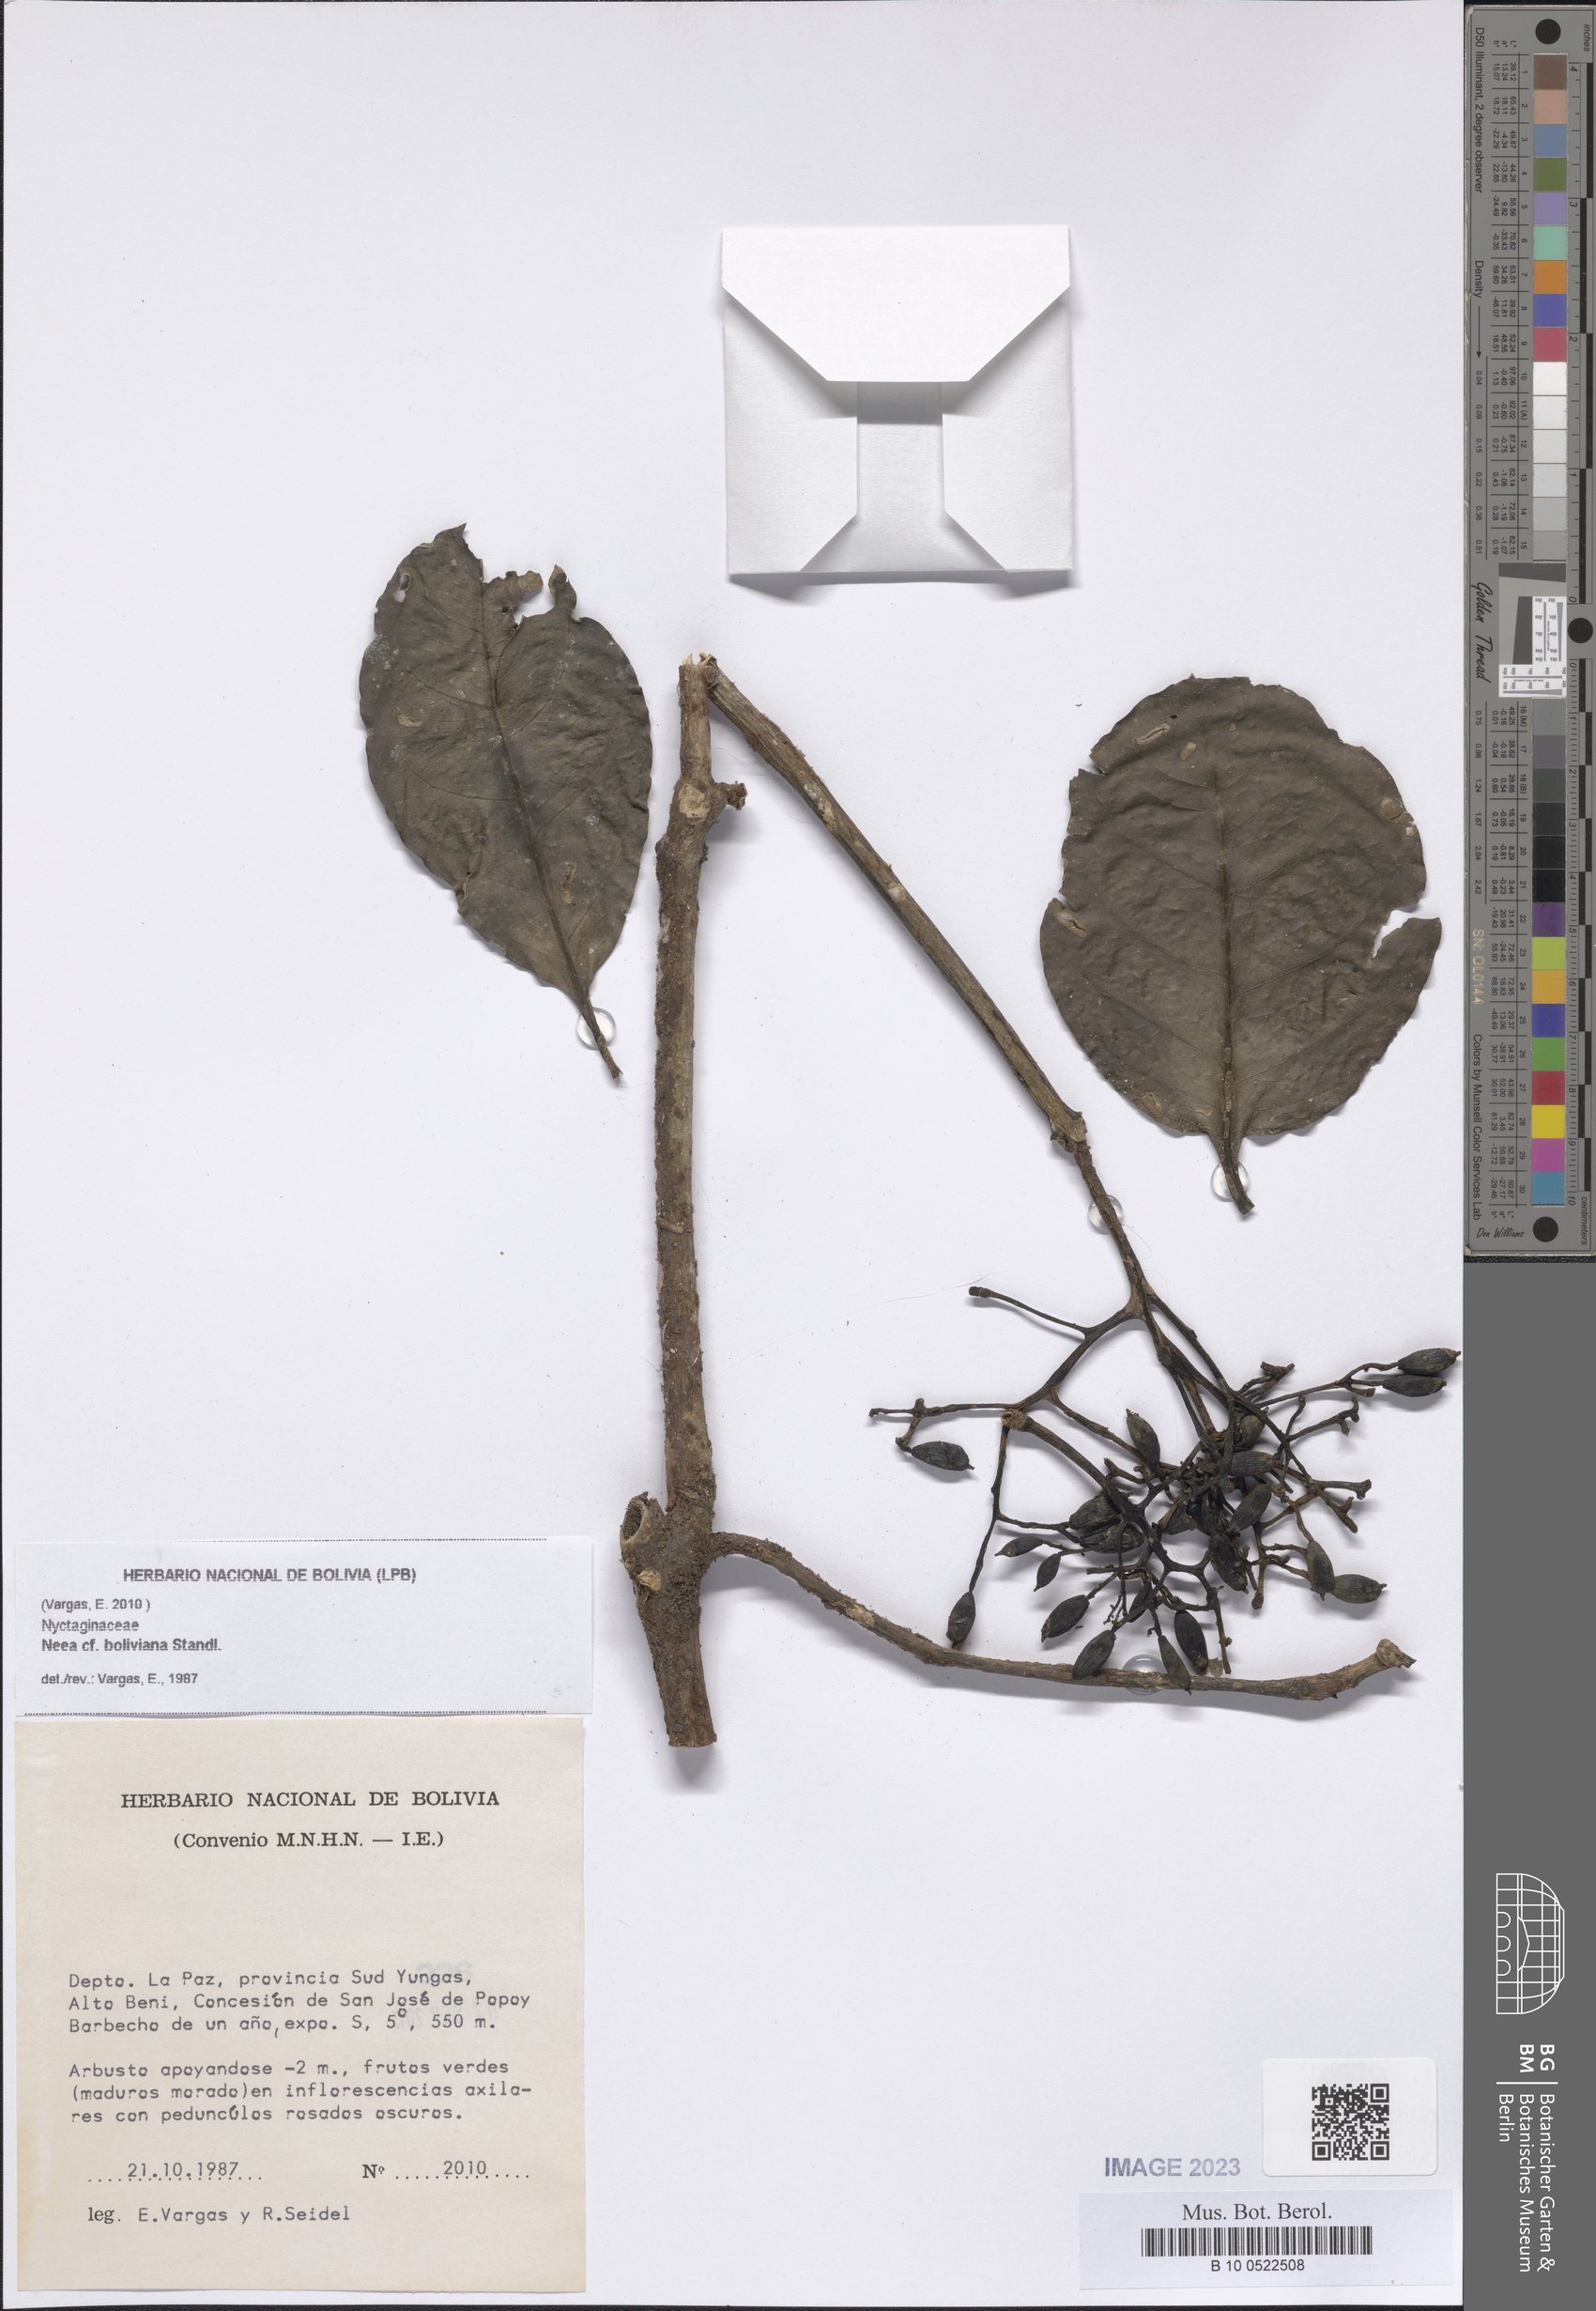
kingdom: Plantae
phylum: Tracheophyta
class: Magnoliopsida
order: Caryophyllales
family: Nyctaginaceae
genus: Neea
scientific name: Neea boliviana
